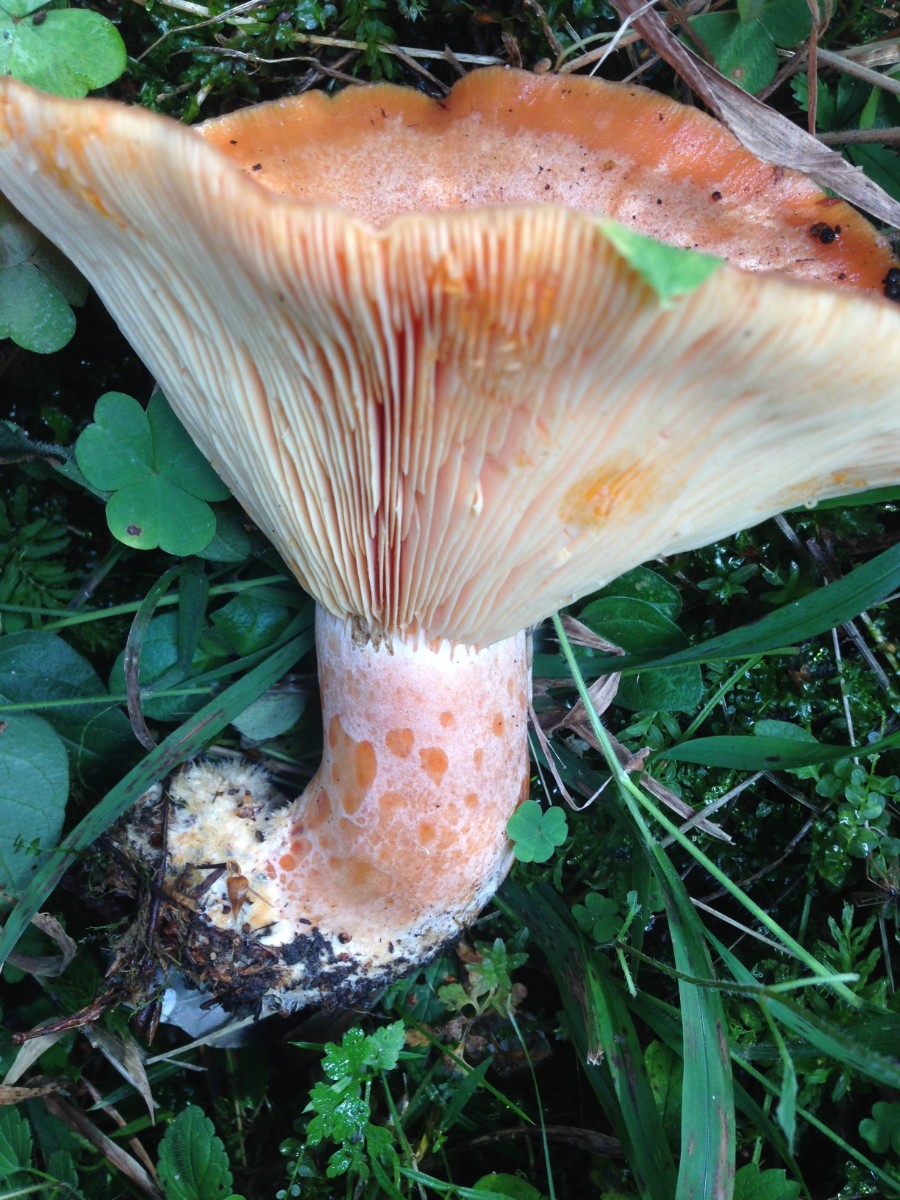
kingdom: Fungi
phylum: Basidiomycota
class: Agaricomycetes
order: Russulales
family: Russulaceae
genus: Lactarius
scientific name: Lactarius deliciosus
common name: velsmagende mælkehat
